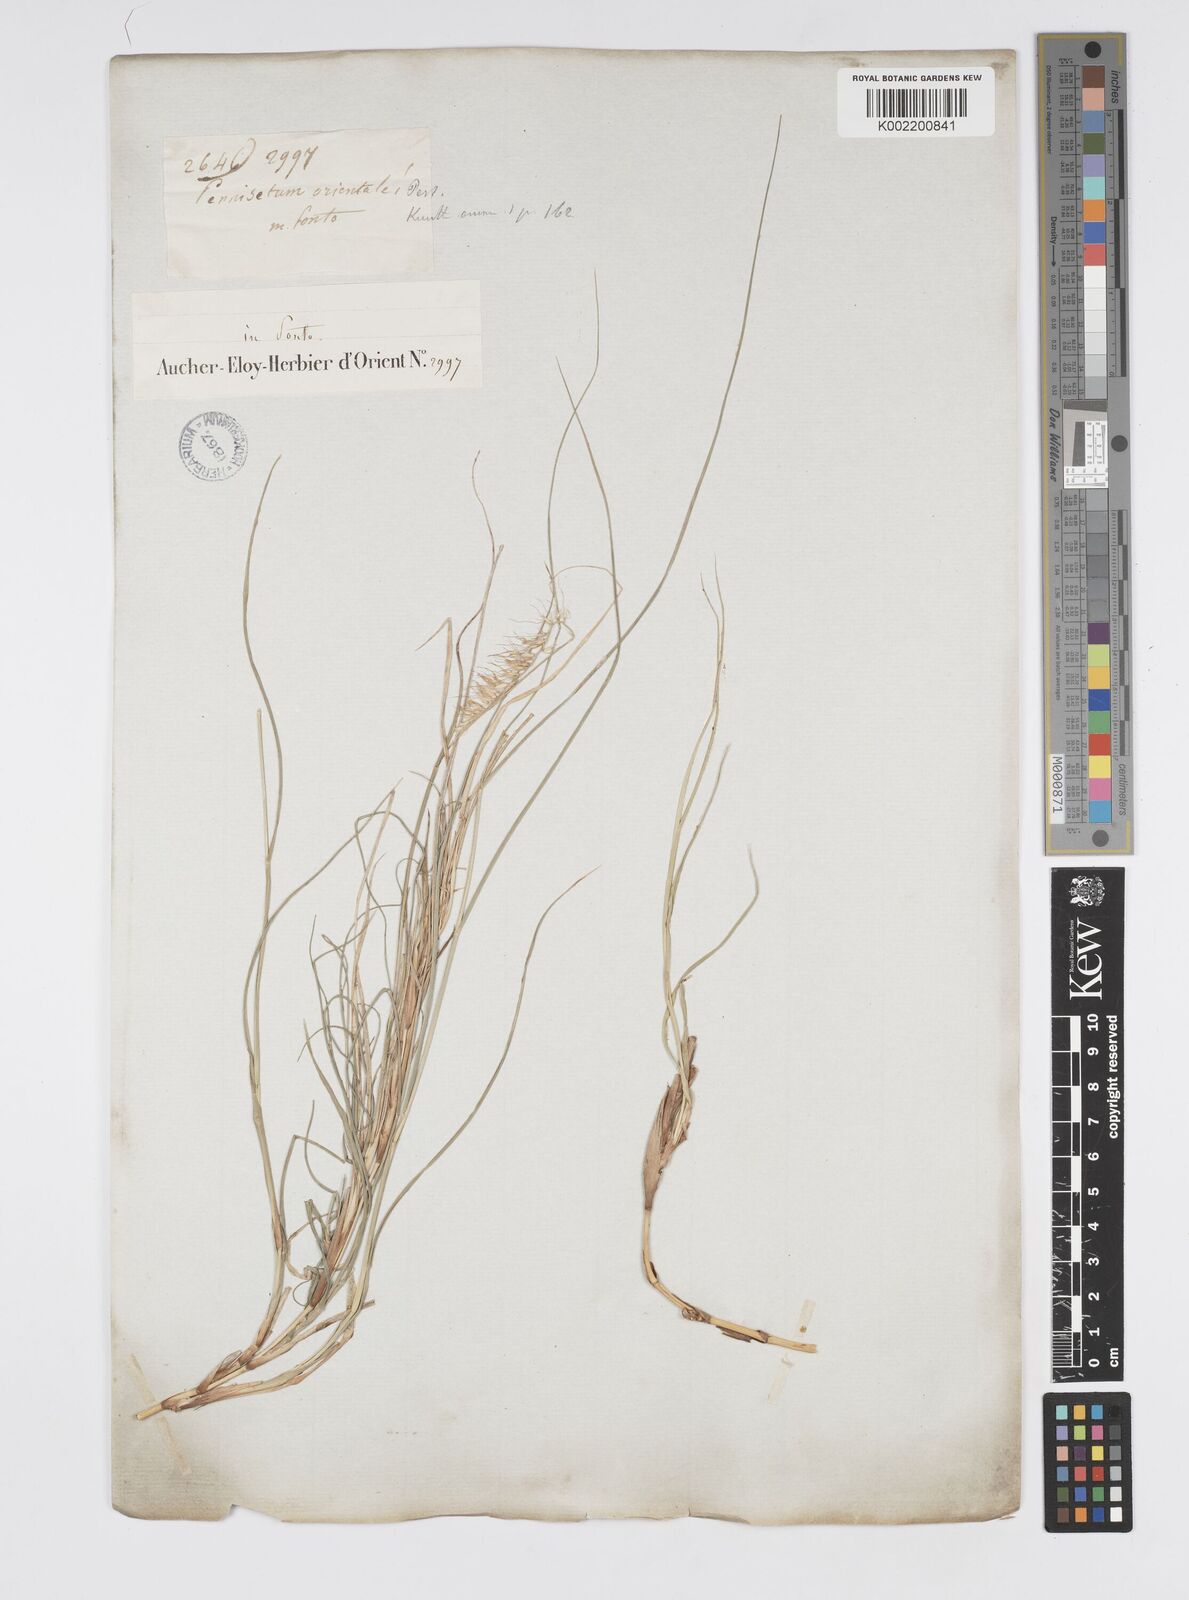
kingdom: Plantae
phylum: Tracheophyta
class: Liliopsida
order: Poales
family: Poaceae
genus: Cenchrus
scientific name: Cenchrus orientalis
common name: Oriental fountain grass
